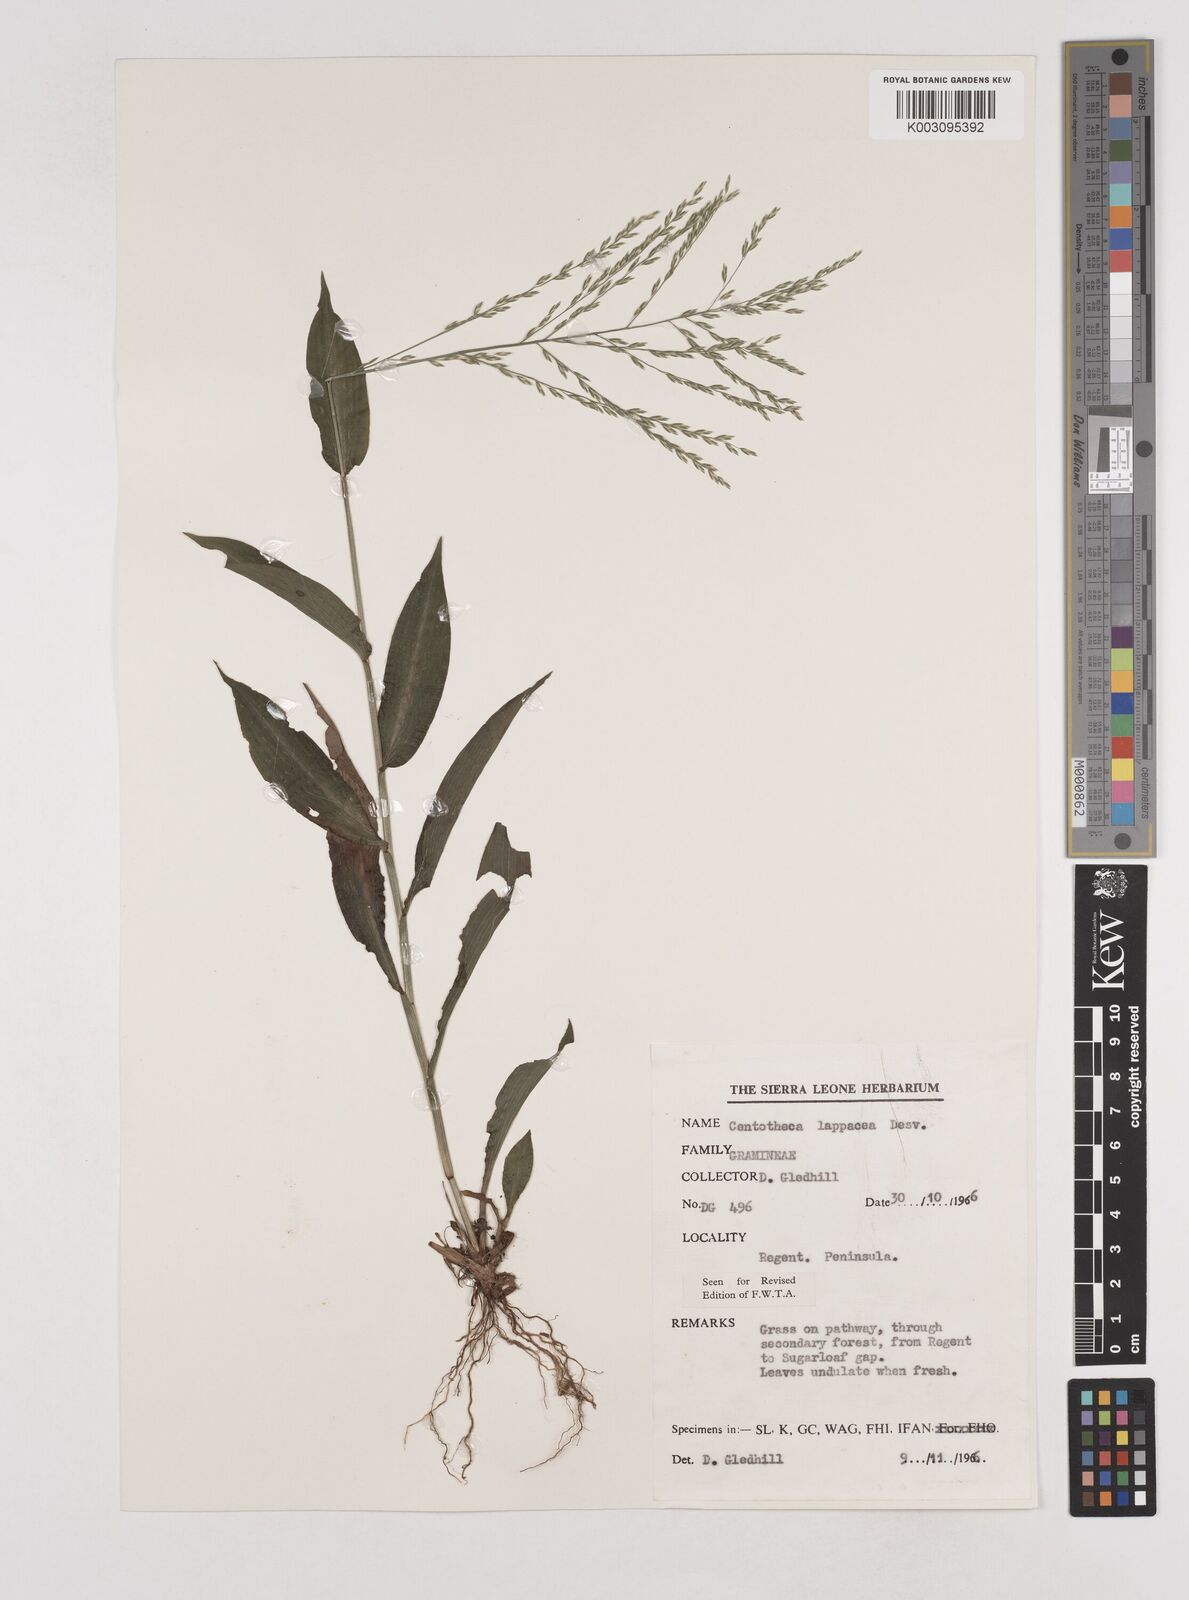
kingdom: Plantae
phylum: Tracheophyta
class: Liliopsida
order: Poales
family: Poaceae
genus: Centotheca
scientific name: Centotheca lappacea
